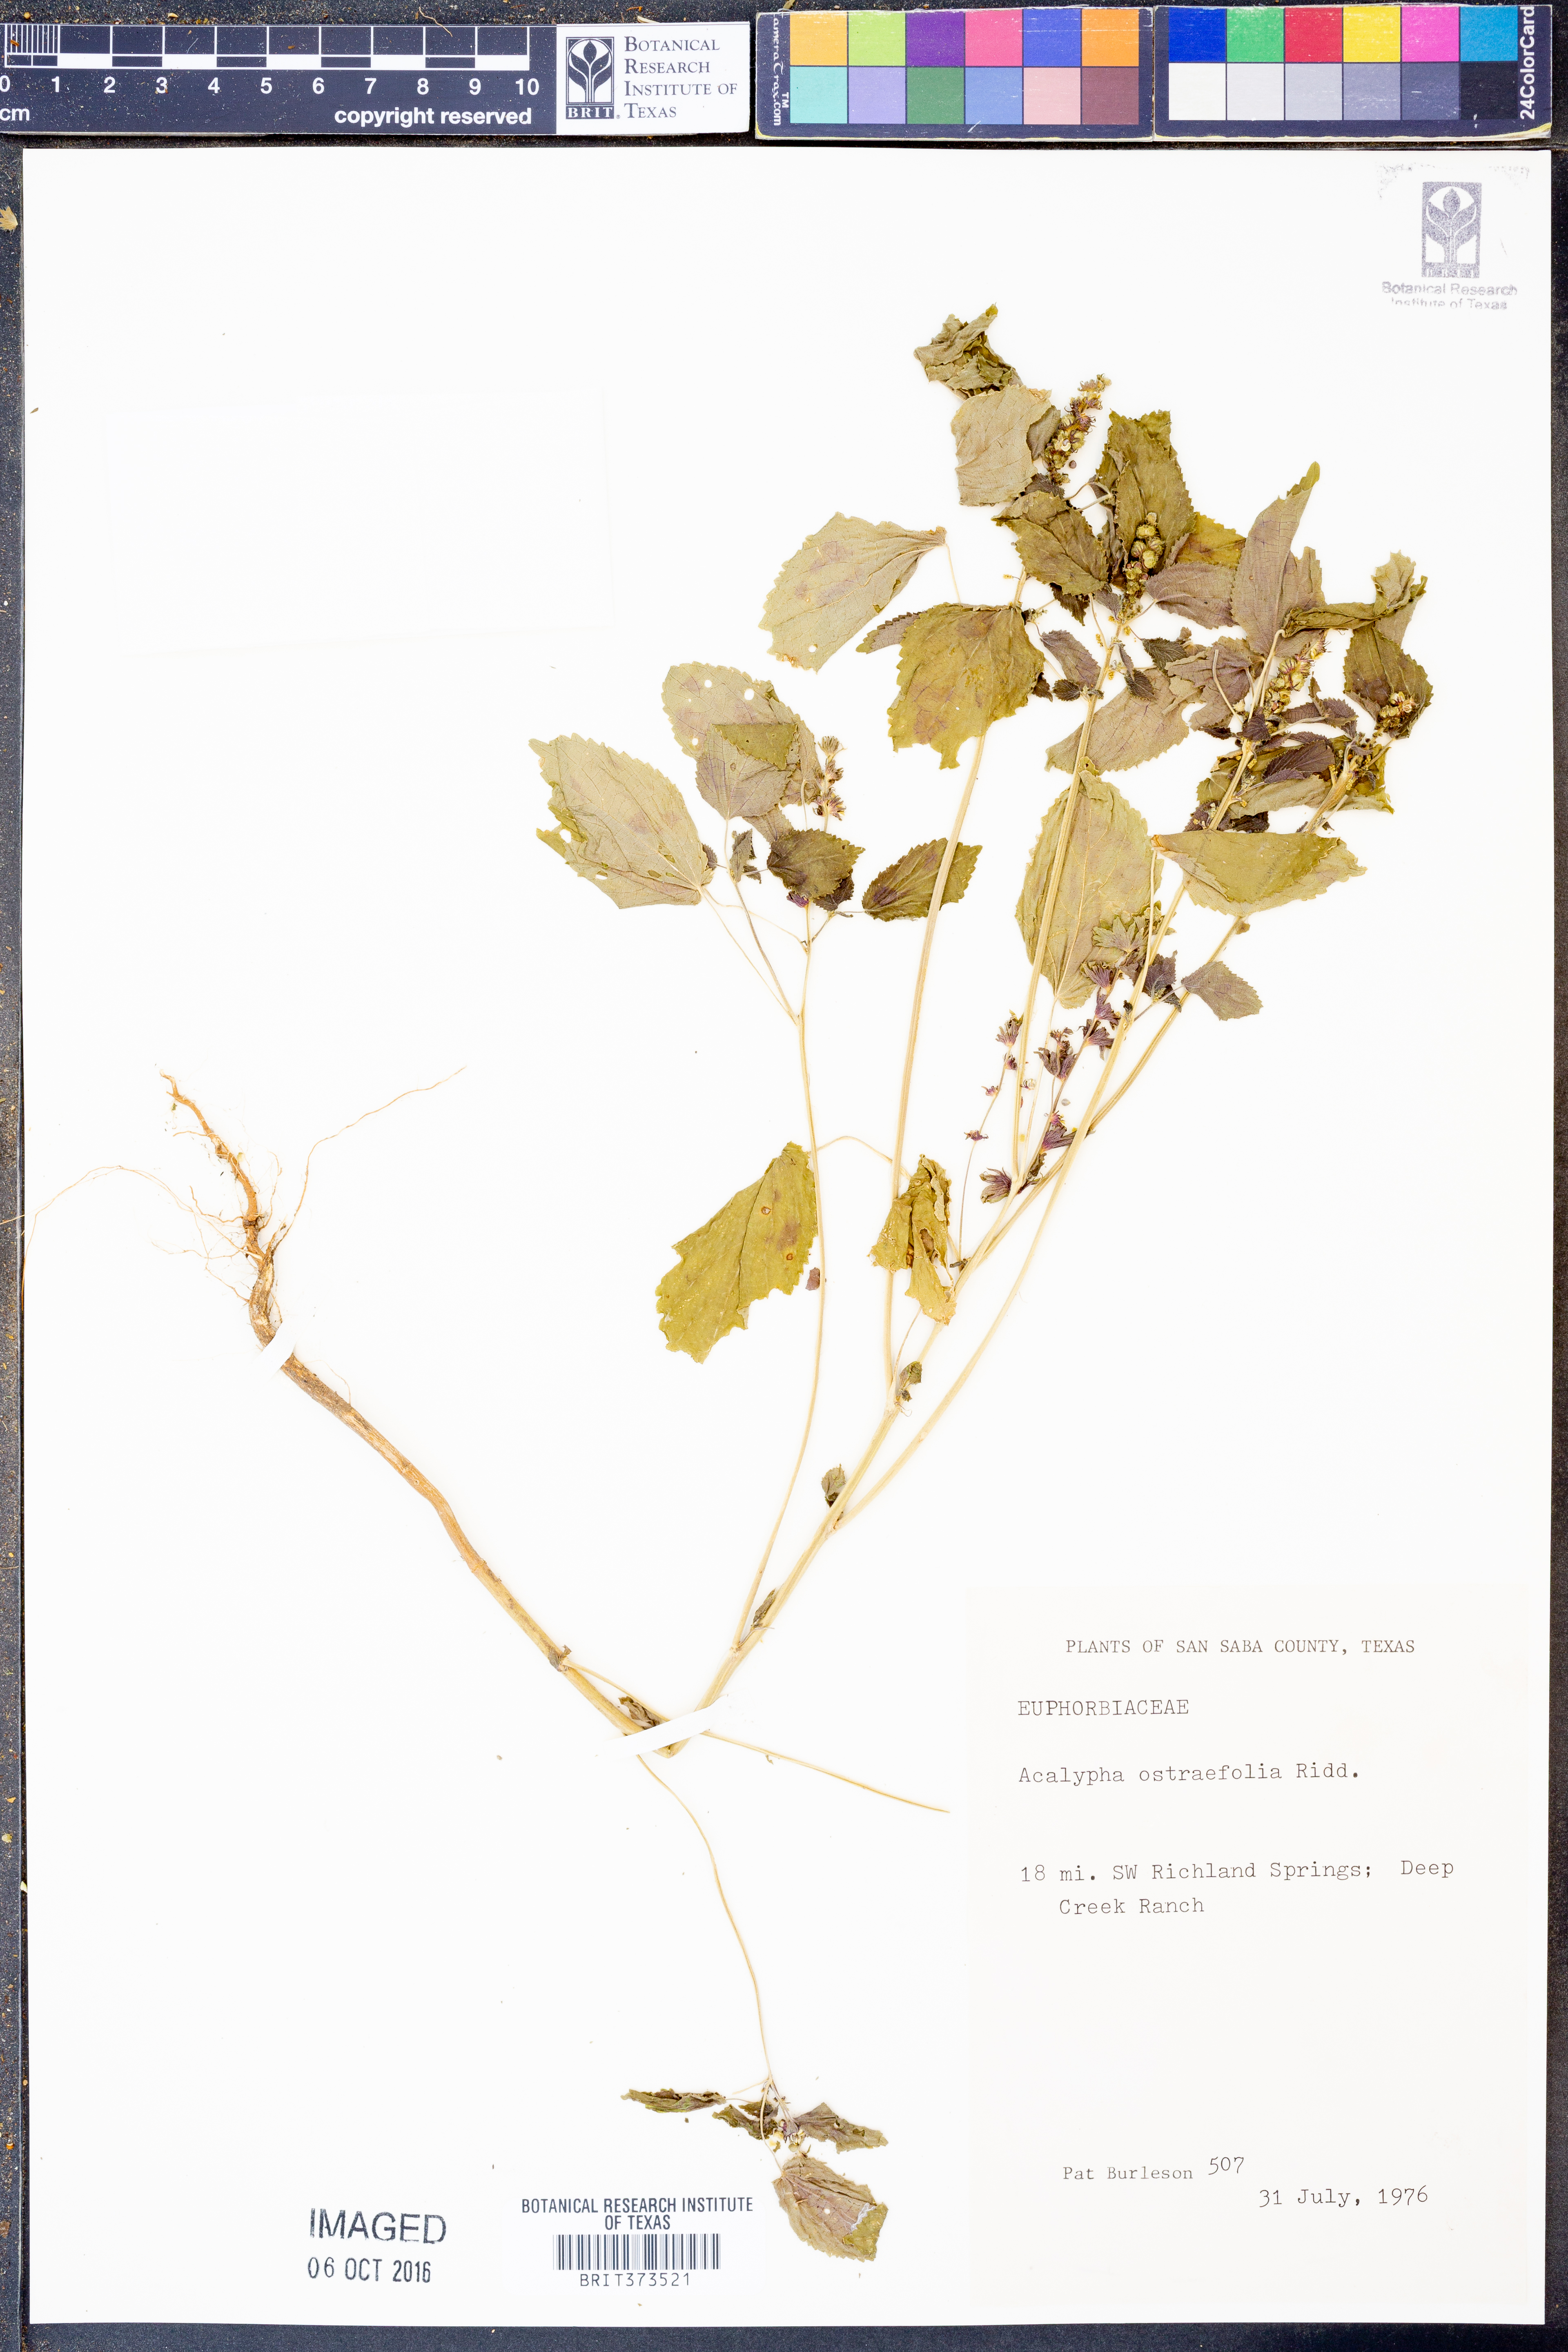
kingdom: Plantae
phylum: Tracheophyta
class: Magnoliopsida
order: Malpighiales
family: Euphorbiaceae
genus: Acalypha
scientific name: Acalypha ostryifolia
